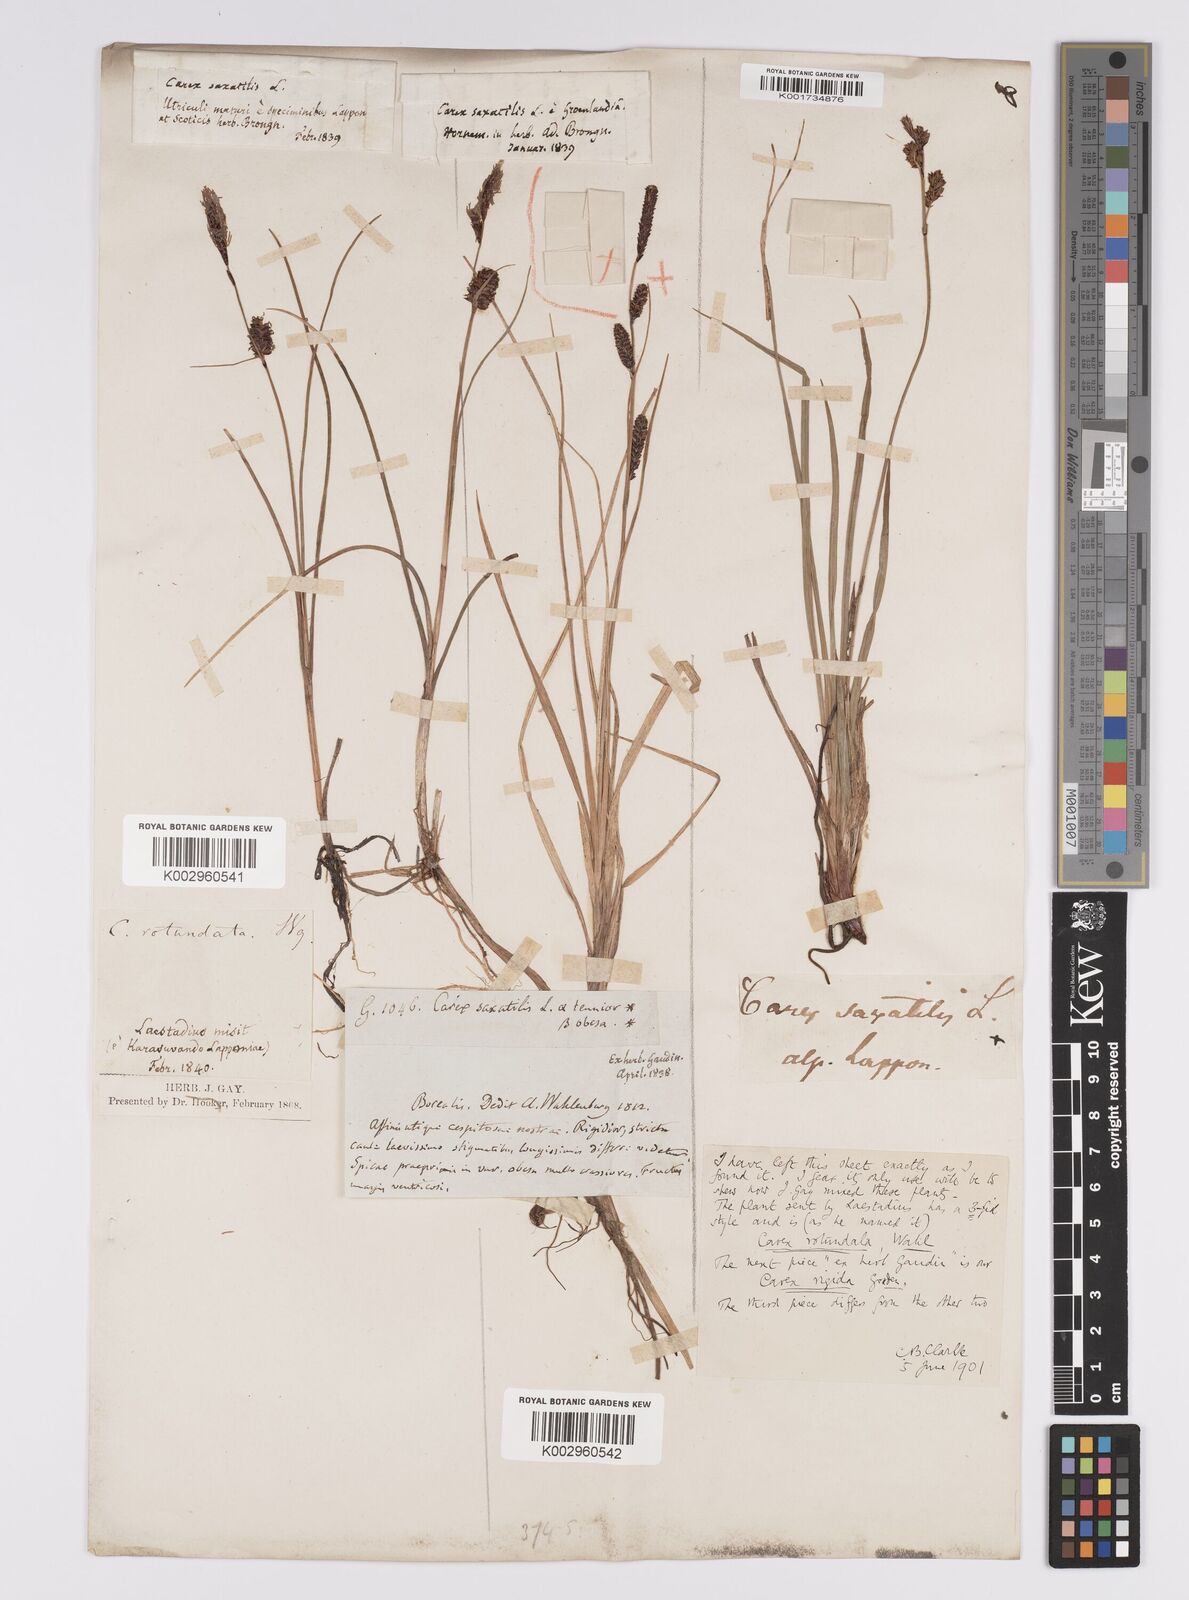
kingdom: Plantae
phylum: Tracheophyta
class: Liliopsida
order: Poales
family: Cyperaceae
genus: Carex
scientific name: Carex saxatilis
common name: Russet sedge
